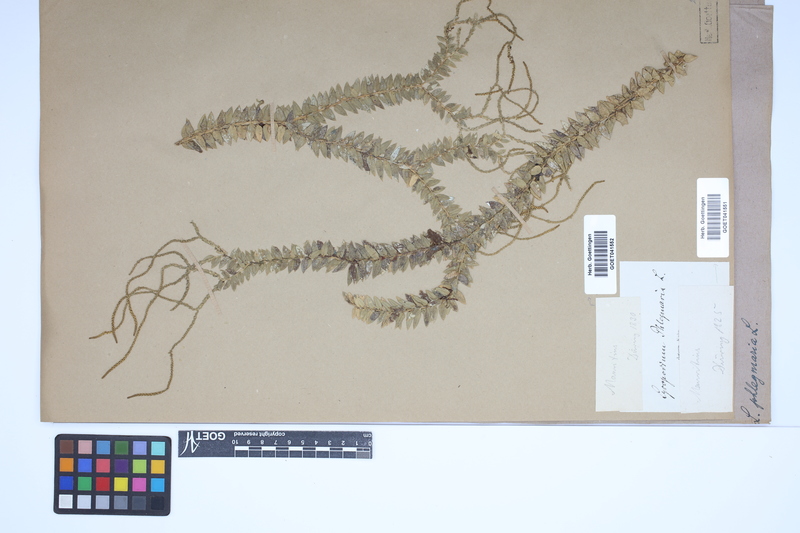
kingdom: Plantae
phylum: Tracheophyta
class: Lycopodiopsida
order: Lycopodiales
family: Lycopodiaceae
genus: Phlegmariurus
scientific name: Phlegmariurus phlegmaria
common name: Coarse tassel-fern
